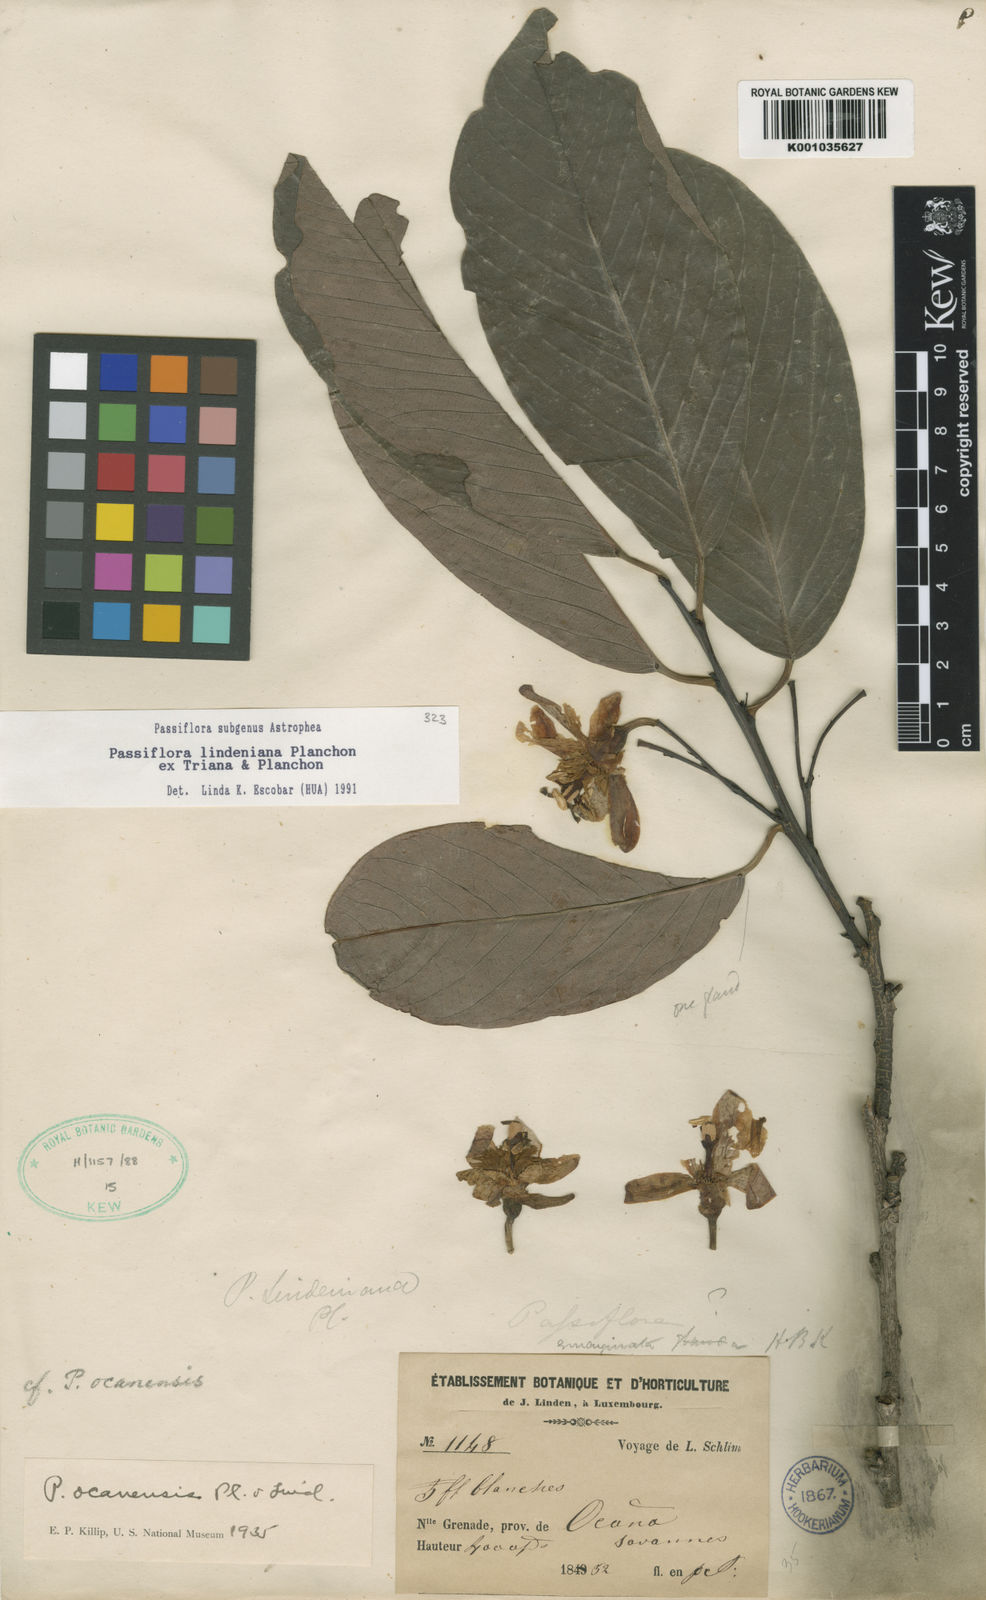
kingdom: Plantae
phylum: Tracheophyta
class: Magnoliopsida
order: Malpighiales
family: Passifloraceae
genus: Passiflora
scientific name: Passiflora lindeniana
